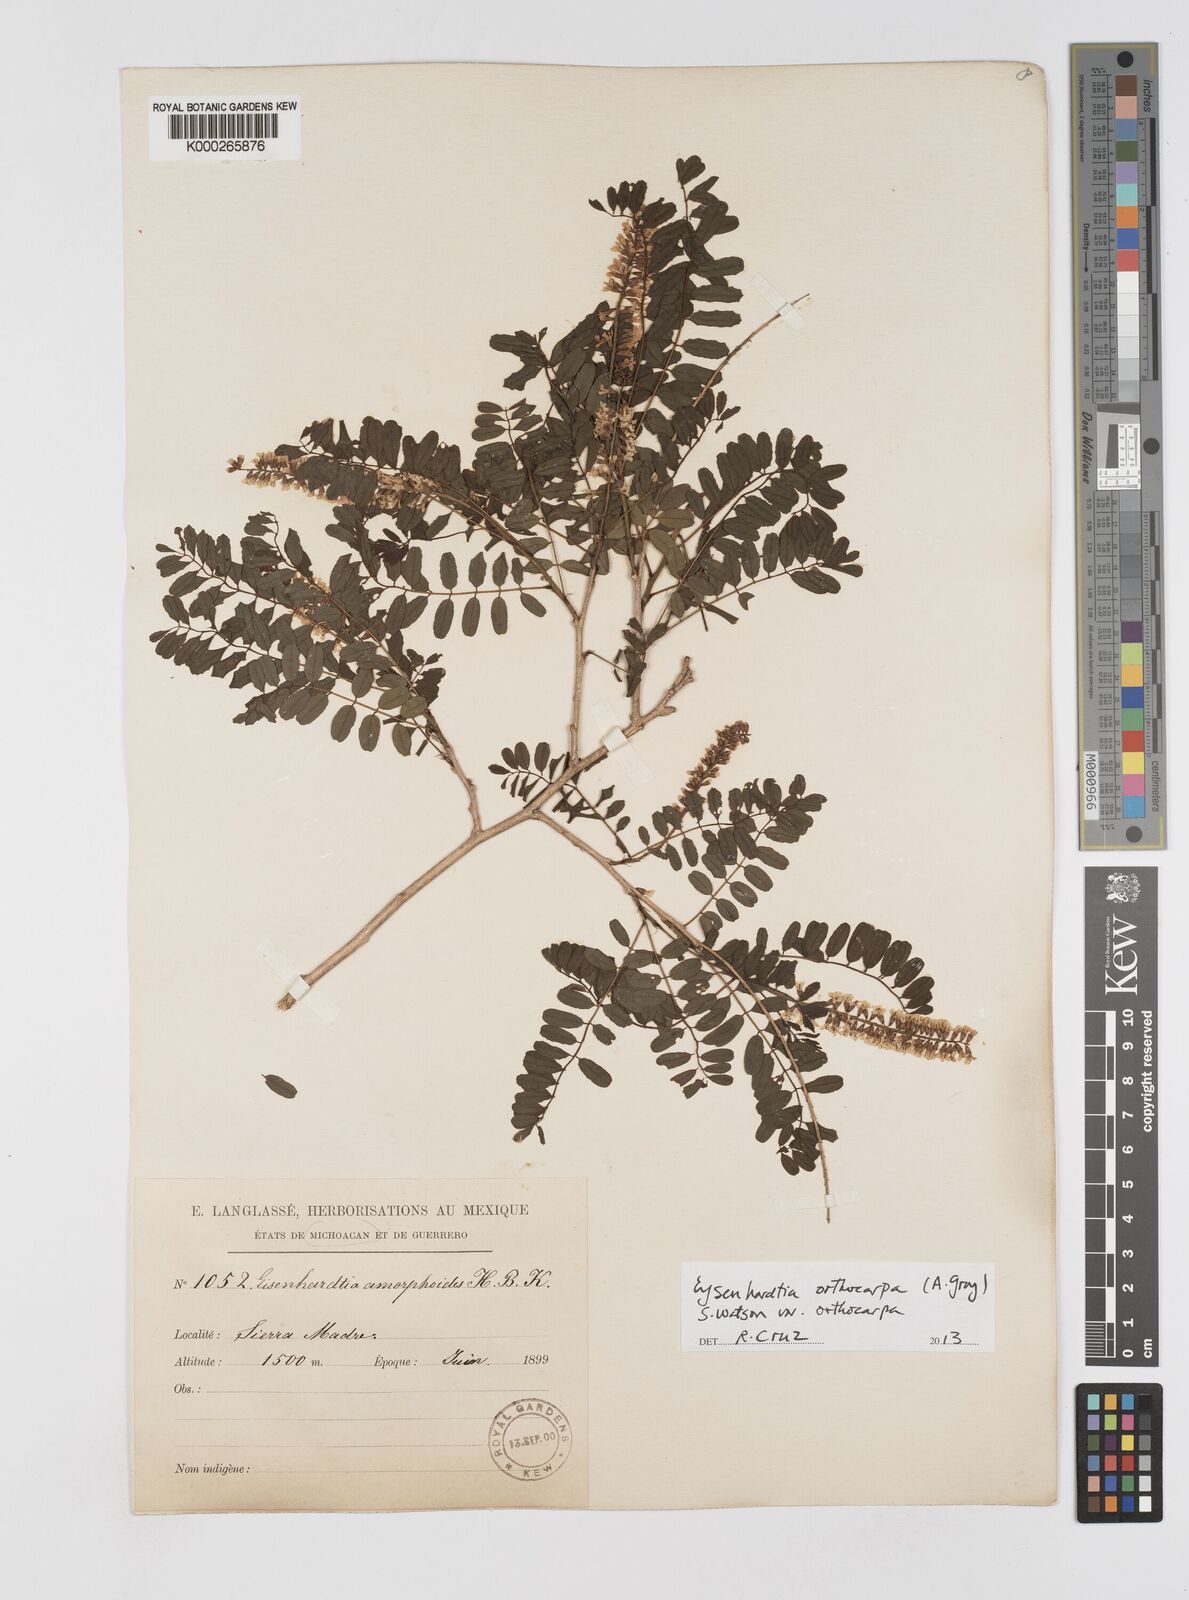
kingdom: Plantae
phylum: Tracheophyta
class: Magnoliopsida
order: Fabales
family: Fabaceae
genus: Eysenhardtia
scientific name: Eysenhardtia orthocarpa
